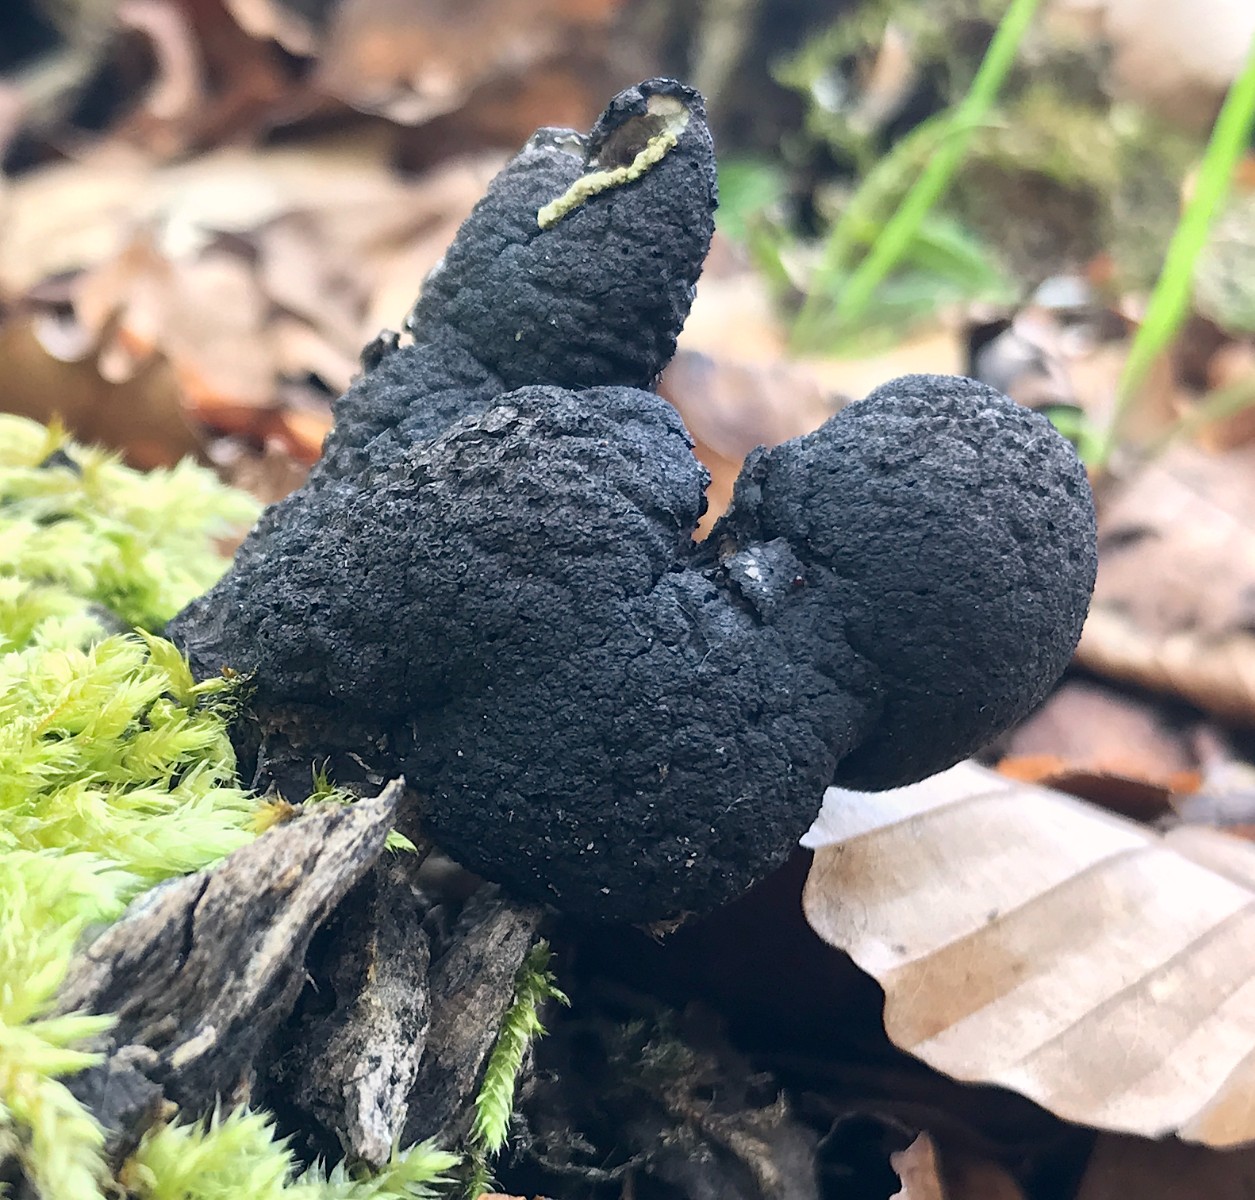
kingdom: Fungi
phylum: Ascomycota
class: Sordariomycetes
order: Xylariales
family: Xylariaceae
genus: Xylaria
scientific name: Xylaria polymorpha
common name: kølle-stødsvamp
